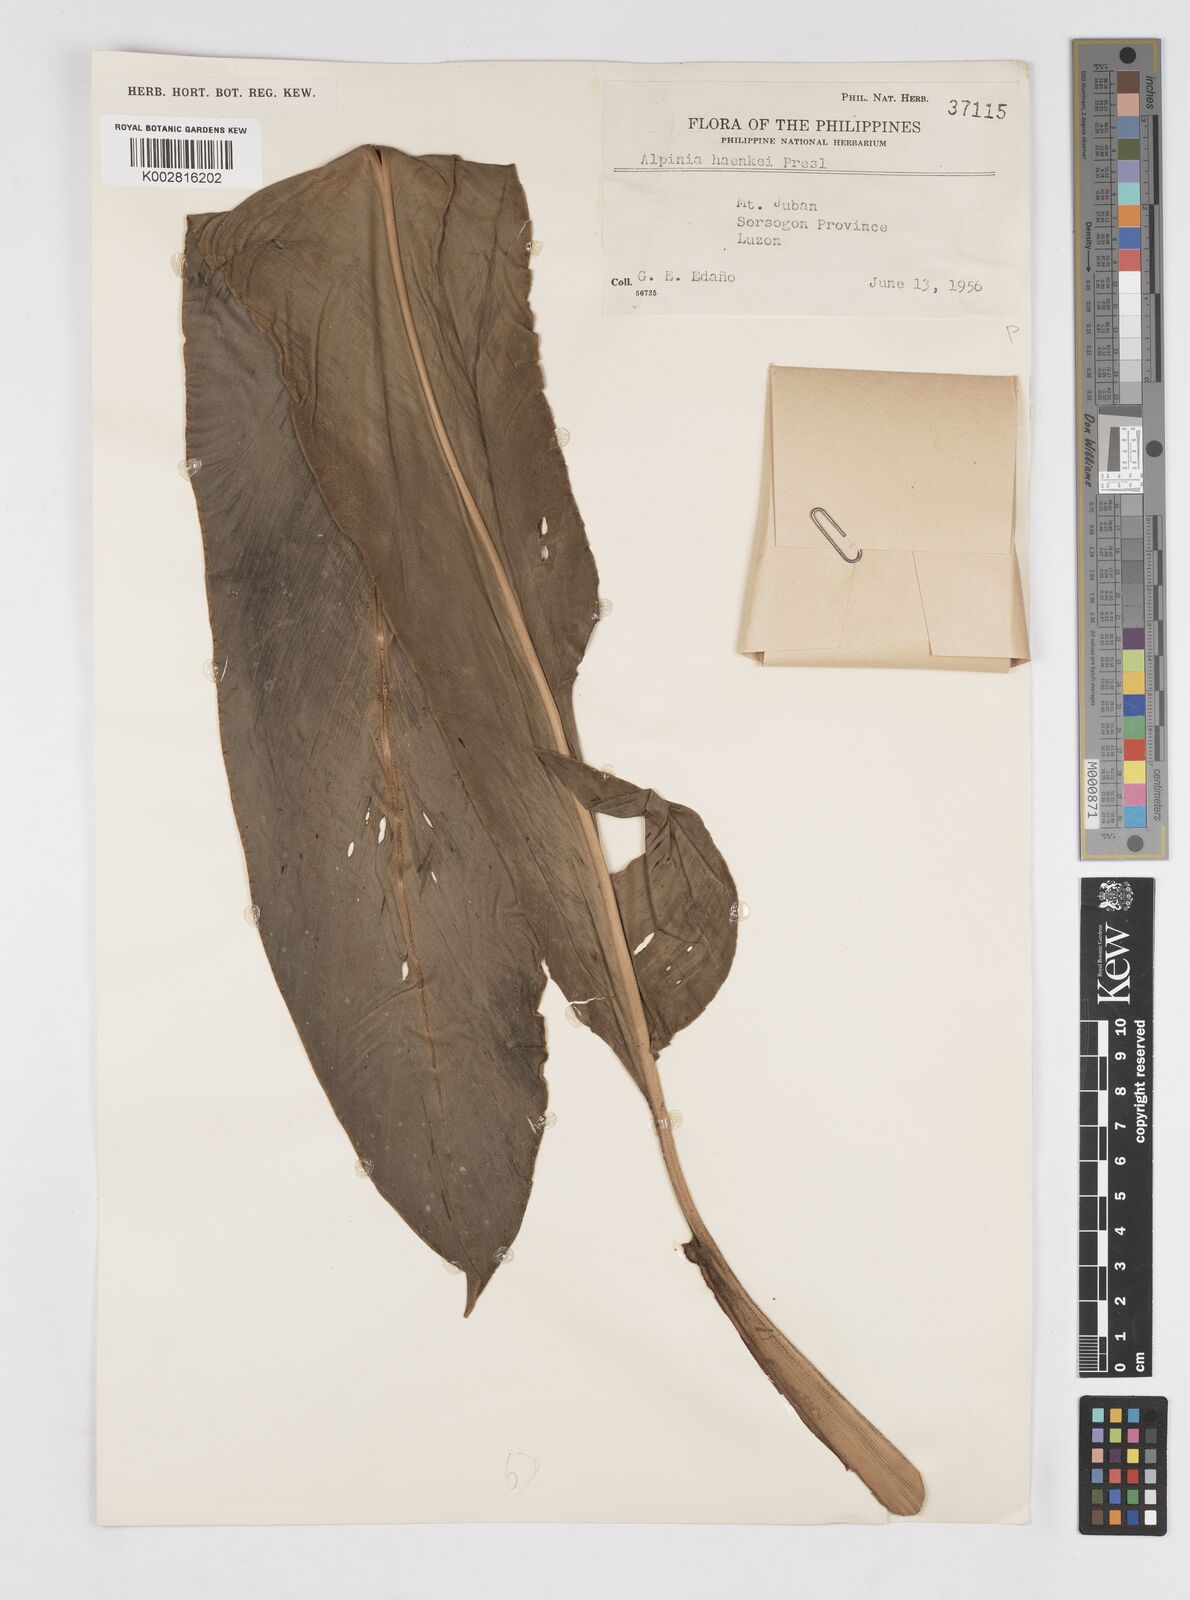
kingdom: Plantae
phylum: Tracheophyta
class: Liliopsida
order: Zingiberales
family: Zingiberaceae
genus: Alpinia
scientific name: Alpinia haenkei
